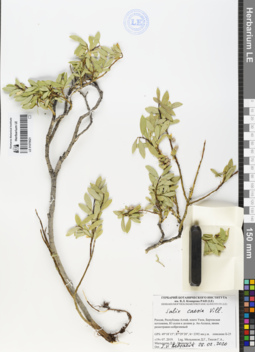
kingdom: Plantae
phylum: Tracheophyta
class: Magnoliopsida
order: Malpighiales
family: Salicaceae
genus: Salix
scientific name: Salix caesia
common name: Blue willow
